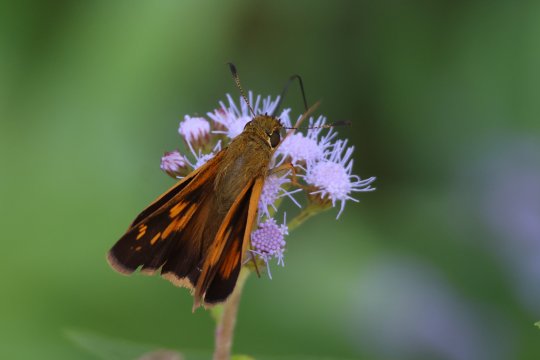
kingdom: Animalia
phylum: Arthropoda
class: Insecta
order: Lepidoptera
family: Hesperiidae
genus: Poanes
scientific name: Poanes yehl
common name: Yehl Skipper
